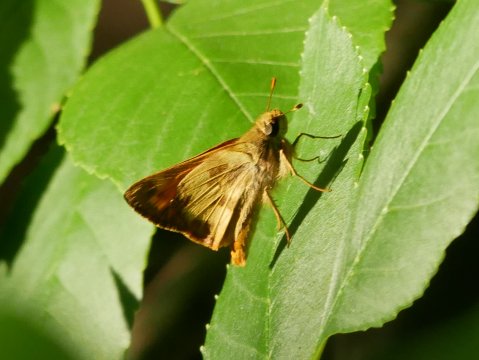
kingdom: Animalia
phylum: Arthropoda
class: Insecta
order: Lepidoptera
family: Hesperiidae
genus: Lon
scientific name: Lon taxiles
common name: Taxiles Skipper
